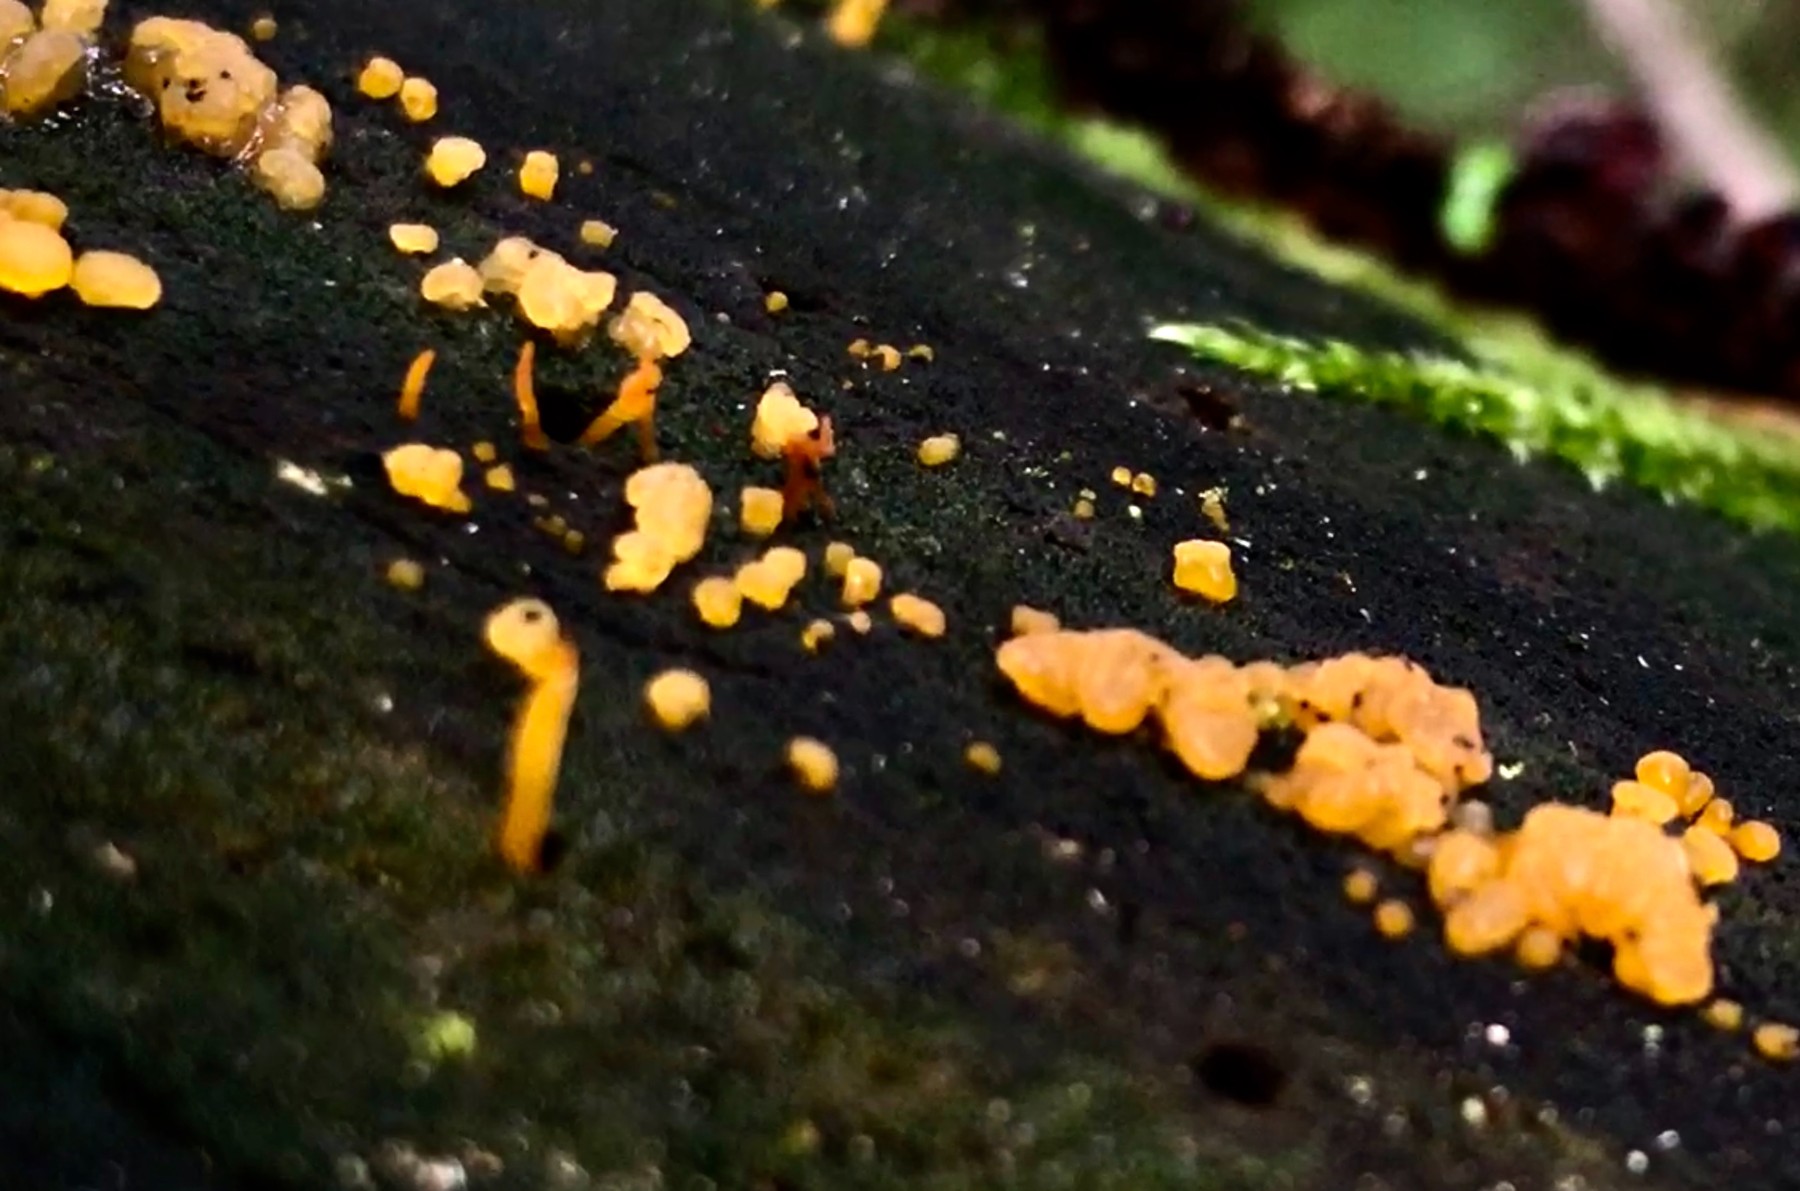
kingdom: Fungi
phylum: Basidiomycota
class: Dacrymycetes
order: Dacrymycetales
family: Dacrymycetaceae
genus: Dacrymyces
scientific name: Dacrymyces stillatus
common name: almindelig tåresvamp
